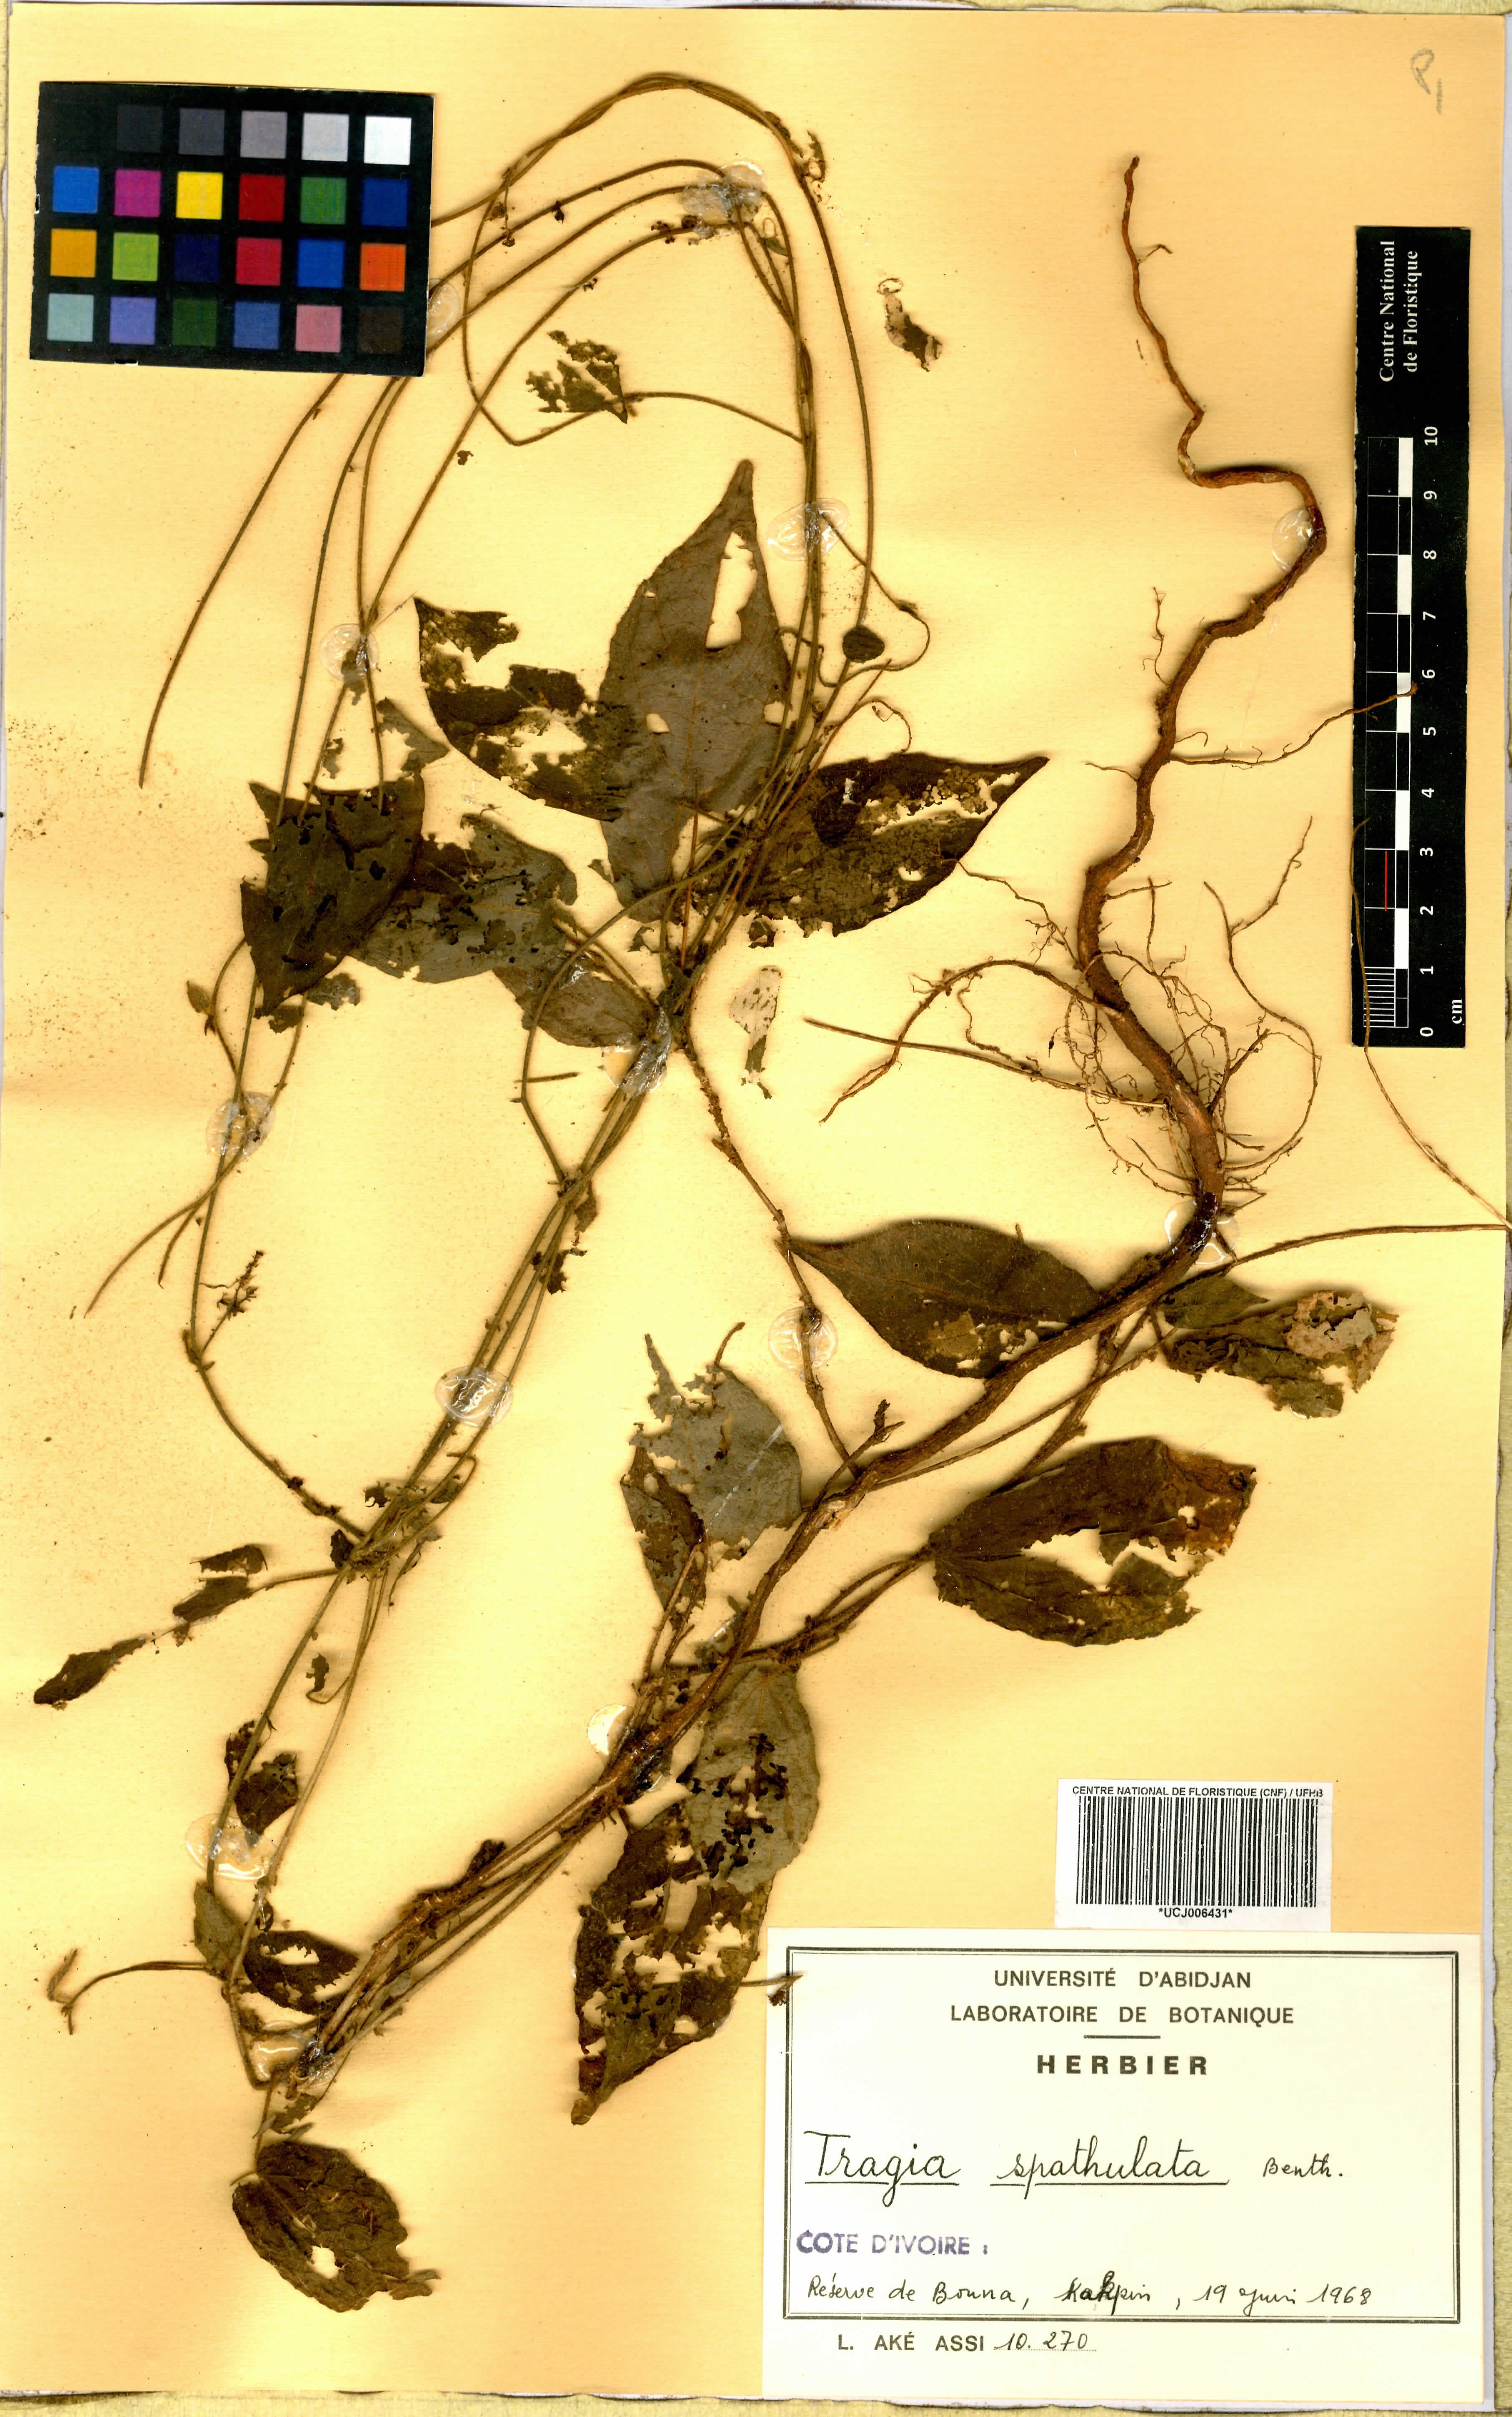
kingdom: Plantae
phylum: Tracheophyta
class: Magnoliopsida
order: Malpighiales
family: Euphorbiaceae
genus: Tragia
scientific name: Tragia spathulata
